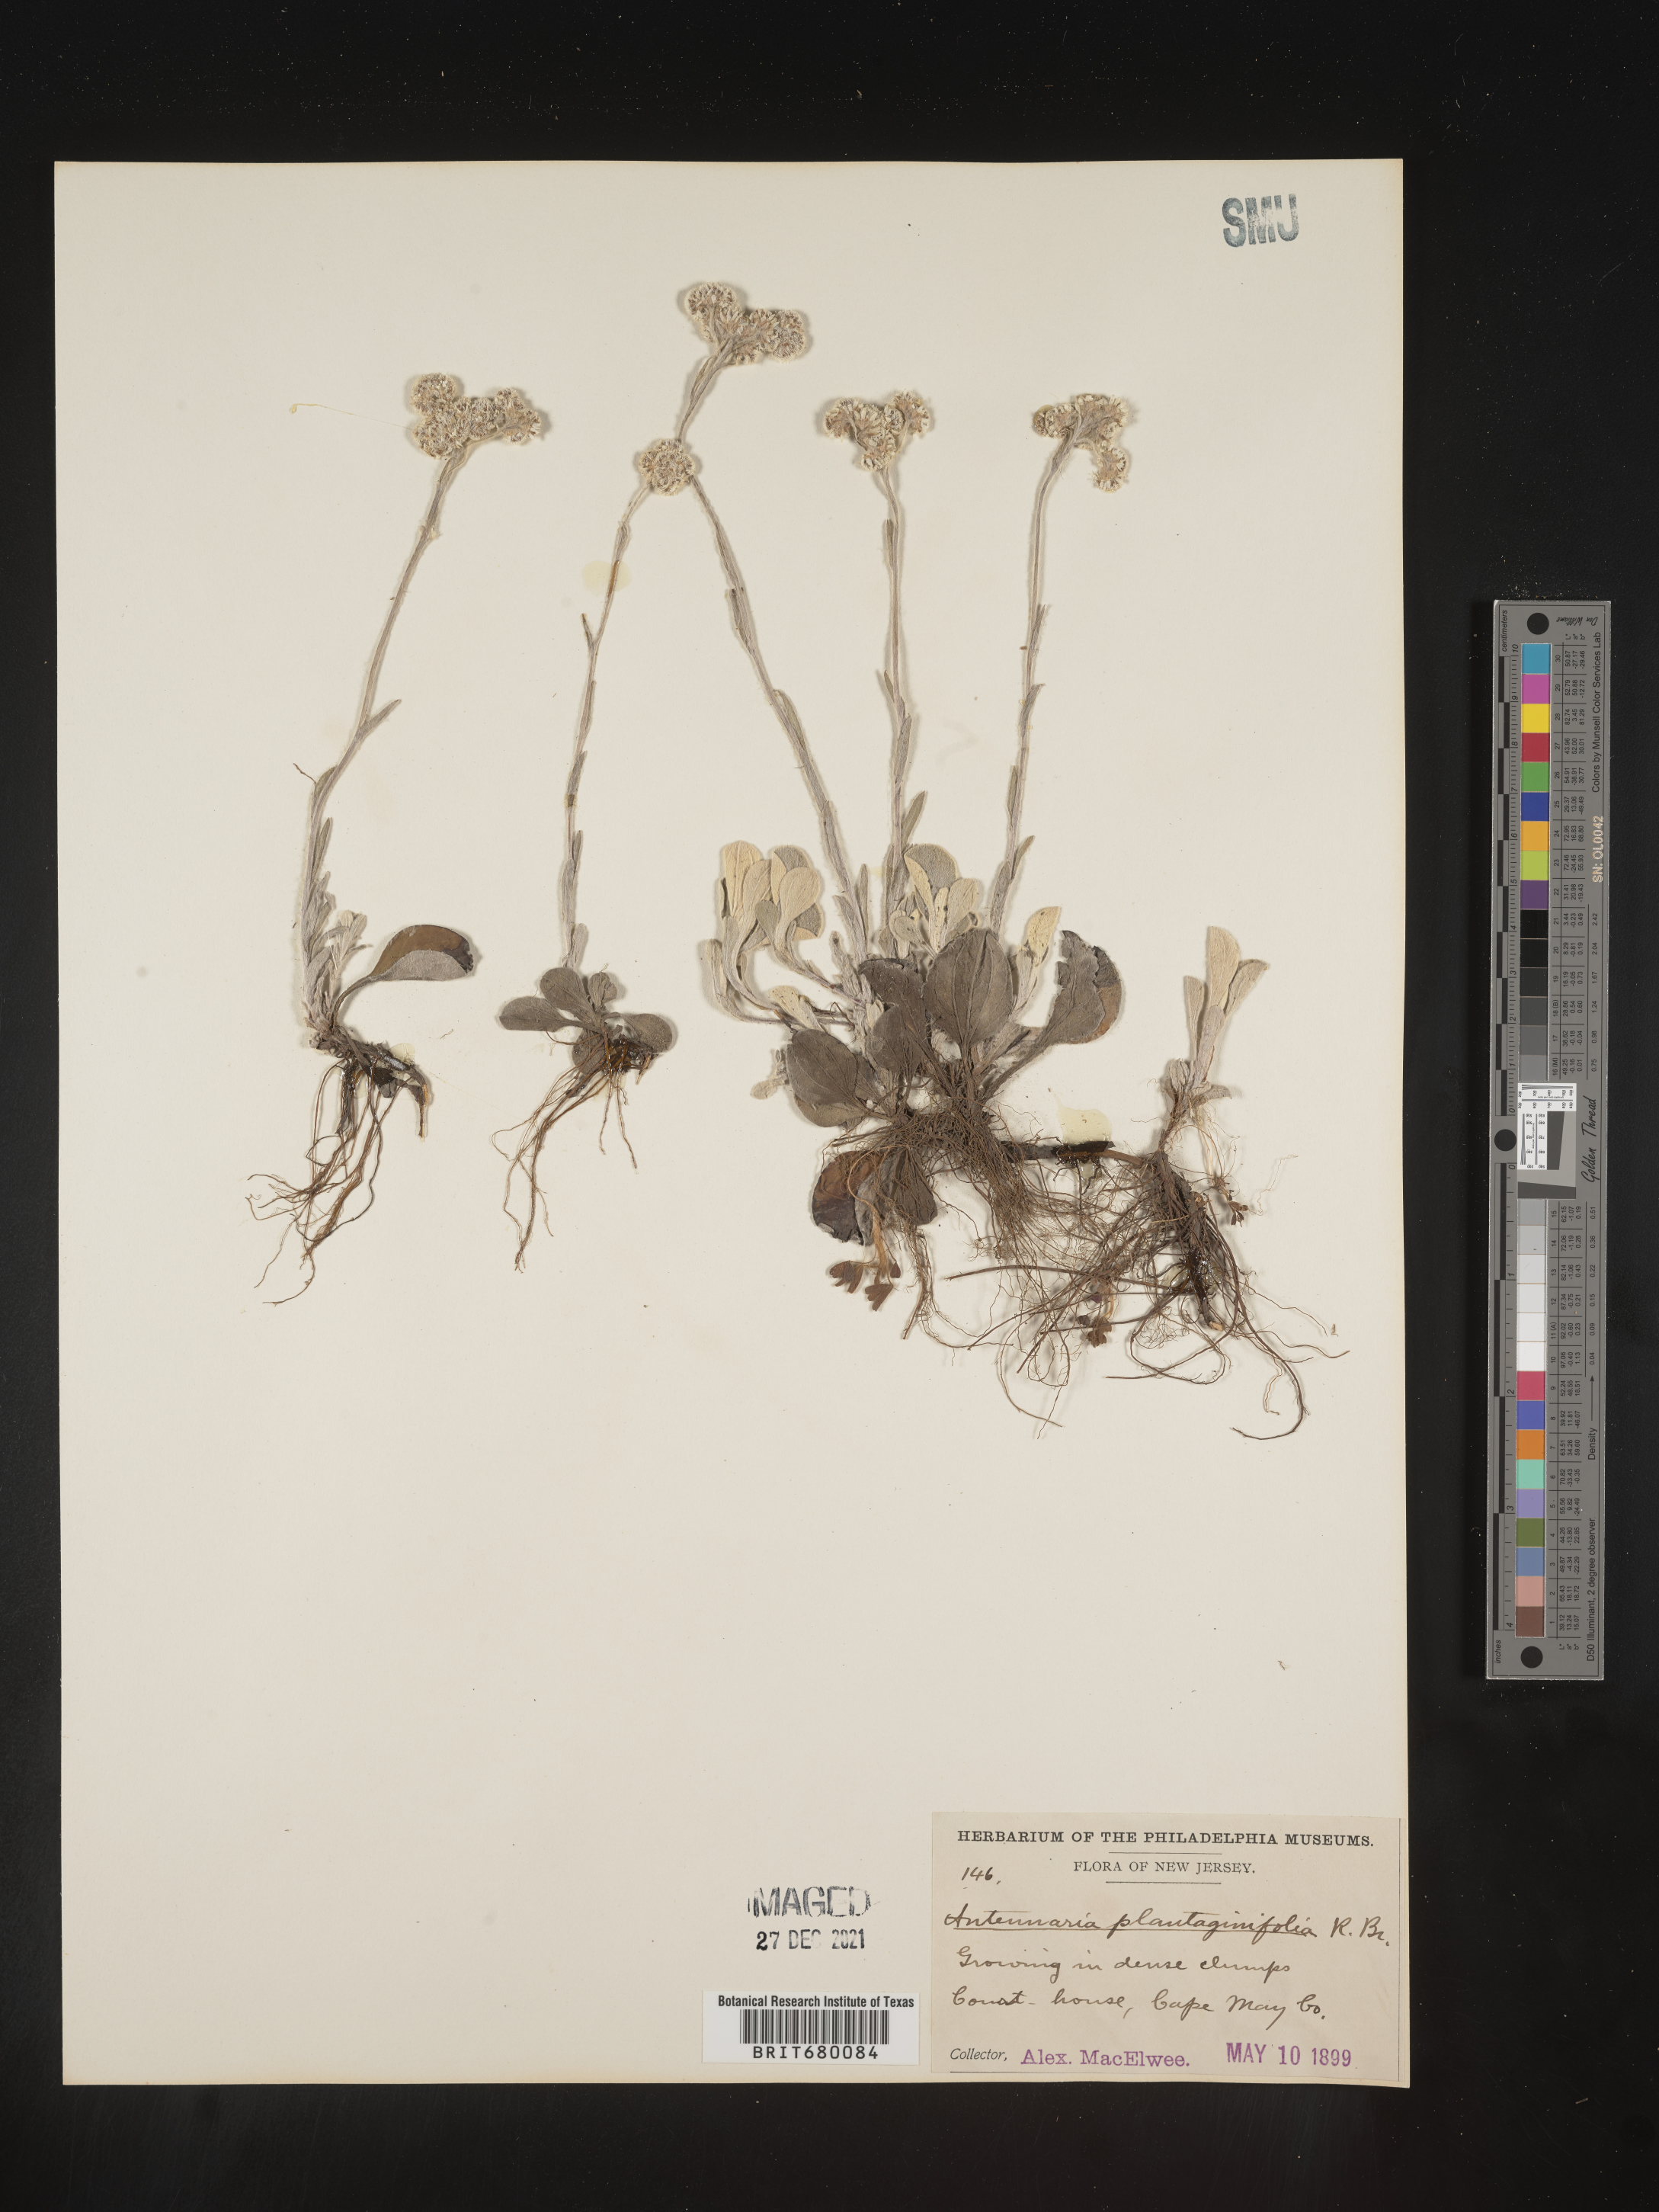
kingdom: Plantae
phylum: Tracheophyta
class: Magnoliopsida
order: Asterales
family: Asteraceae
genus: Antennaria
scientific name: Antennaria plantaginifolia
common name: Plantain-leaved pussytoes
